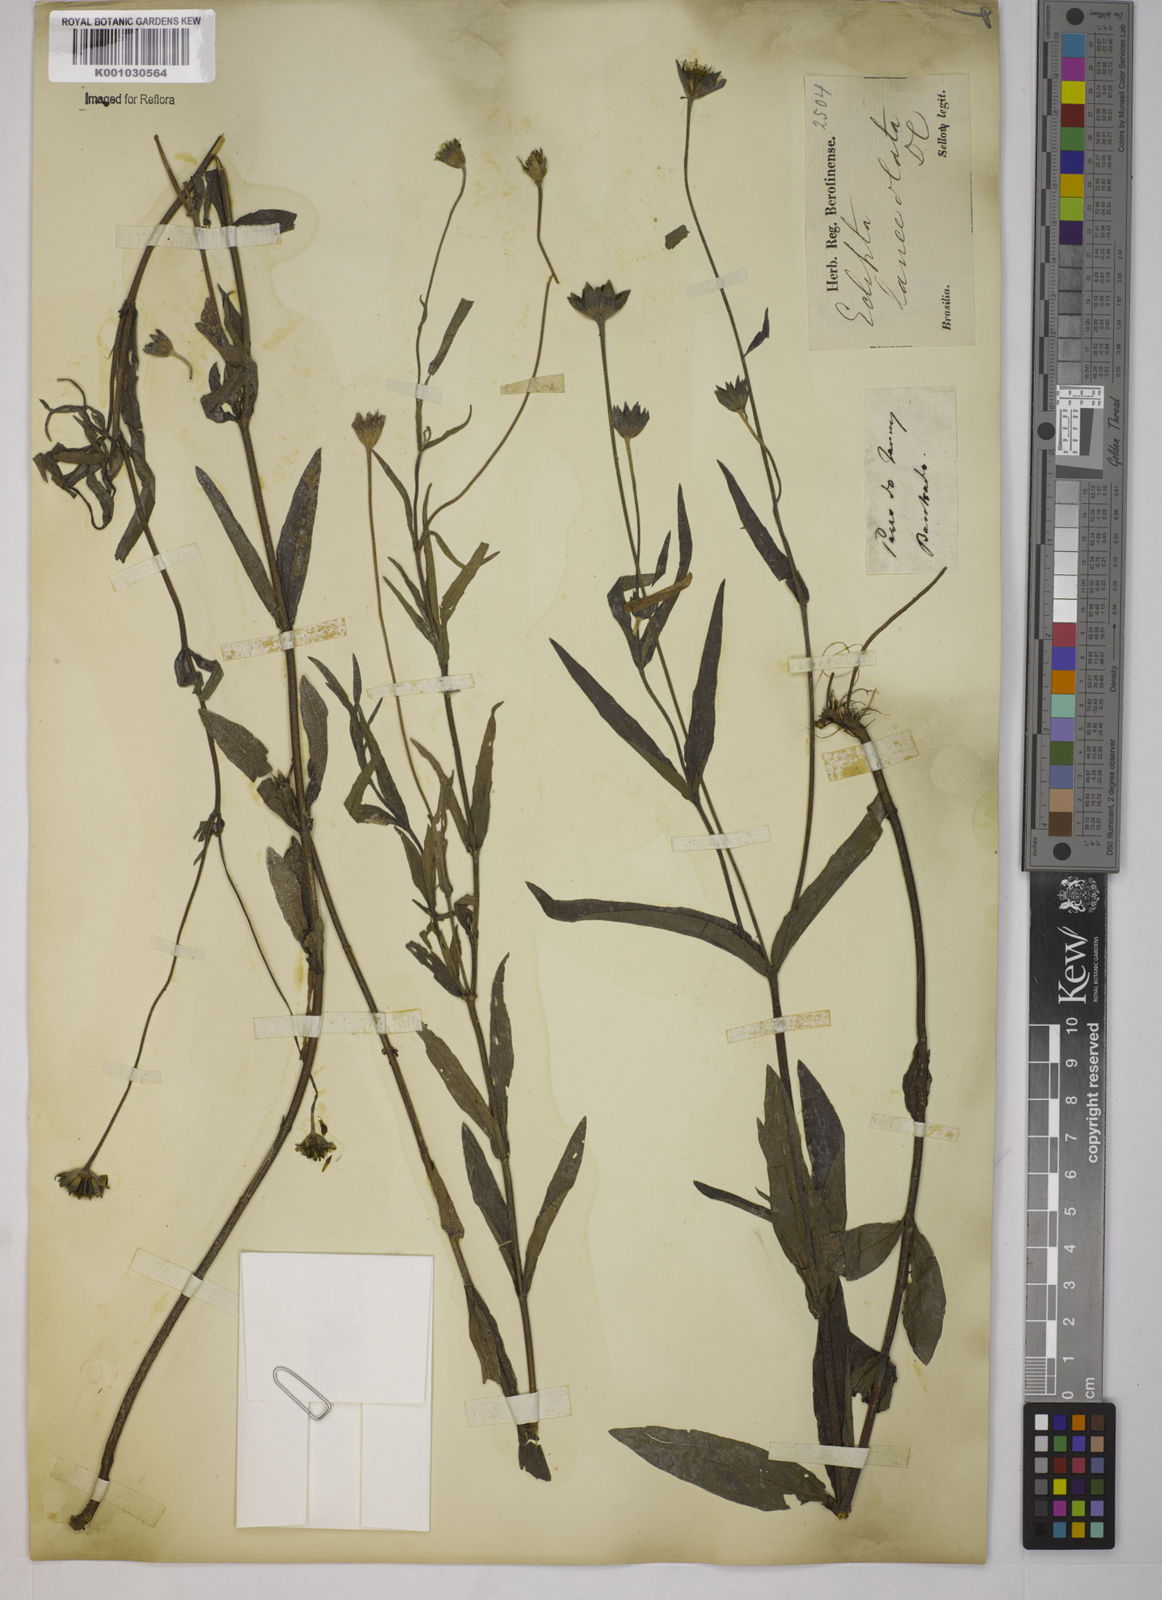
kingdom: Plantae
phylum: Tracheophyta
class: Magnoliopsida
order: Asterales
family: Asteraceae
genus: Eclipta
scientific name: Eclipta megapotamica
